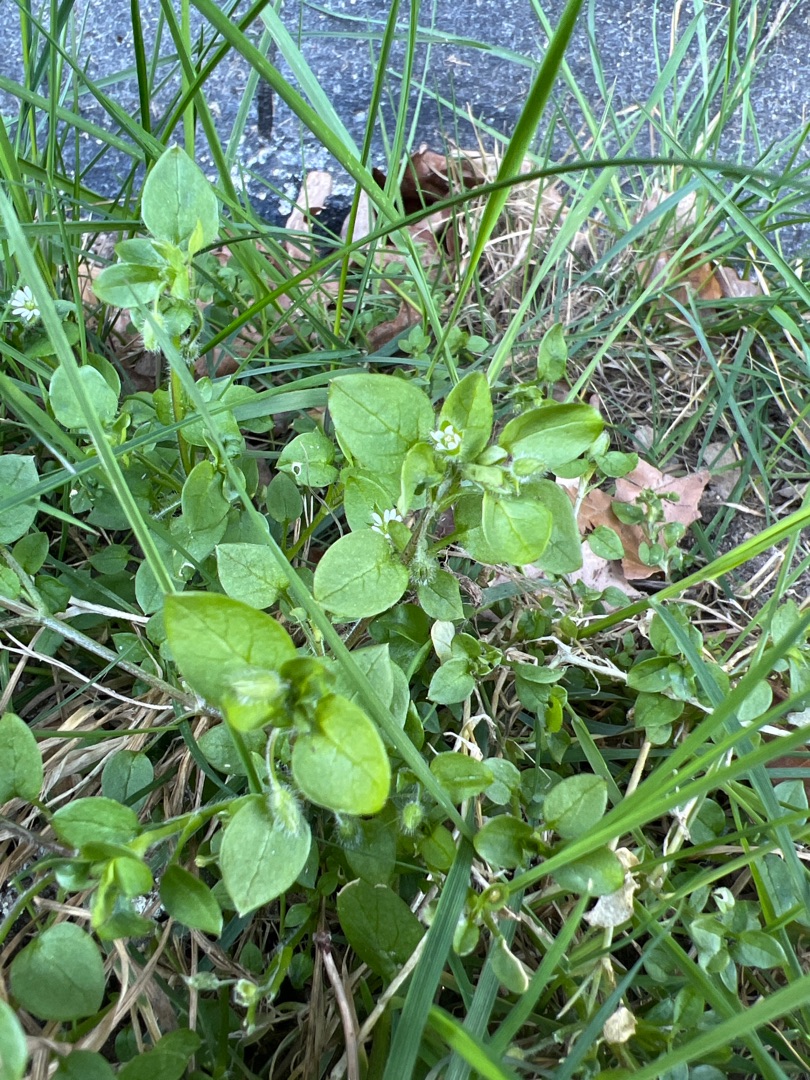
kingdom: Plantae
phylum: Tracheophyta
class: Magnoliopsida
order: Caryophyllales
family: Caryophyllaceae
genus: Stellaria
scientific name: Stellaria media
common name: Almindelig fuglegræs
